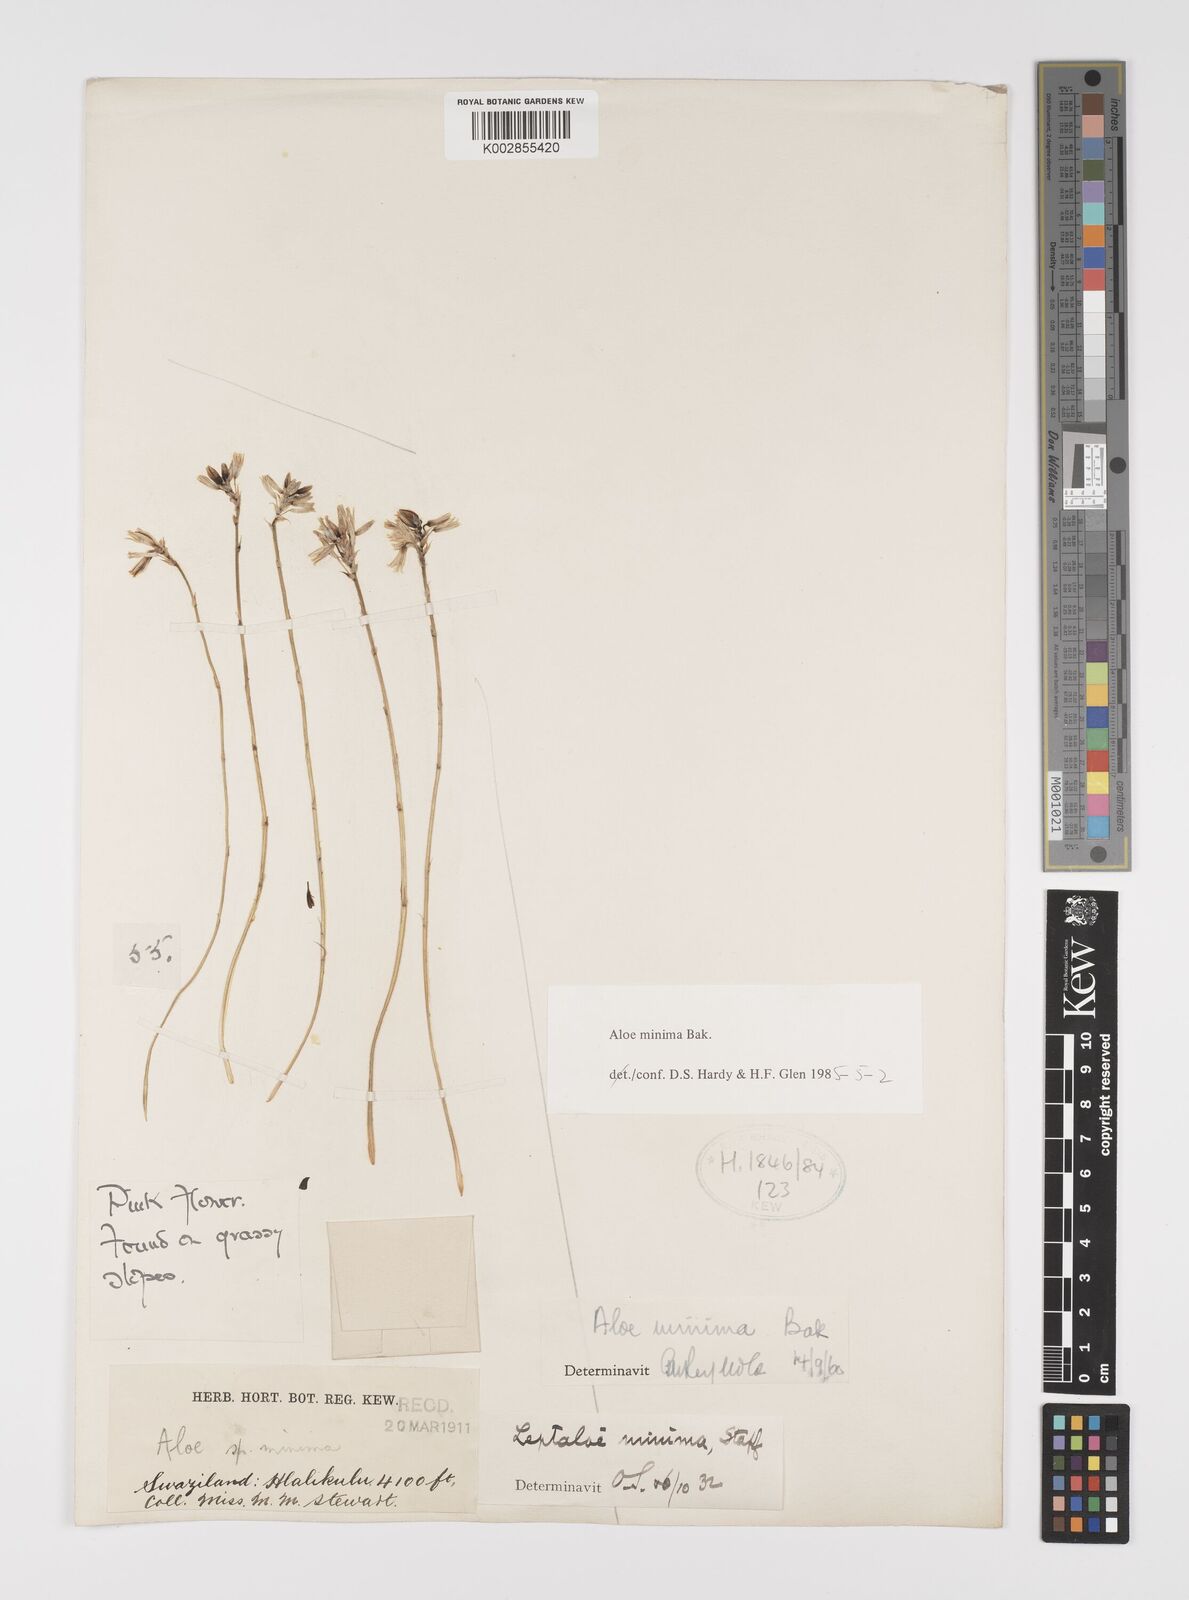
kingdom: Plantae
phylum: Tracheophyta
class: Liliopsida
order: Asparagales
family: Asphodelaceae
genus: Aloe
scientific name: Aloe minima
